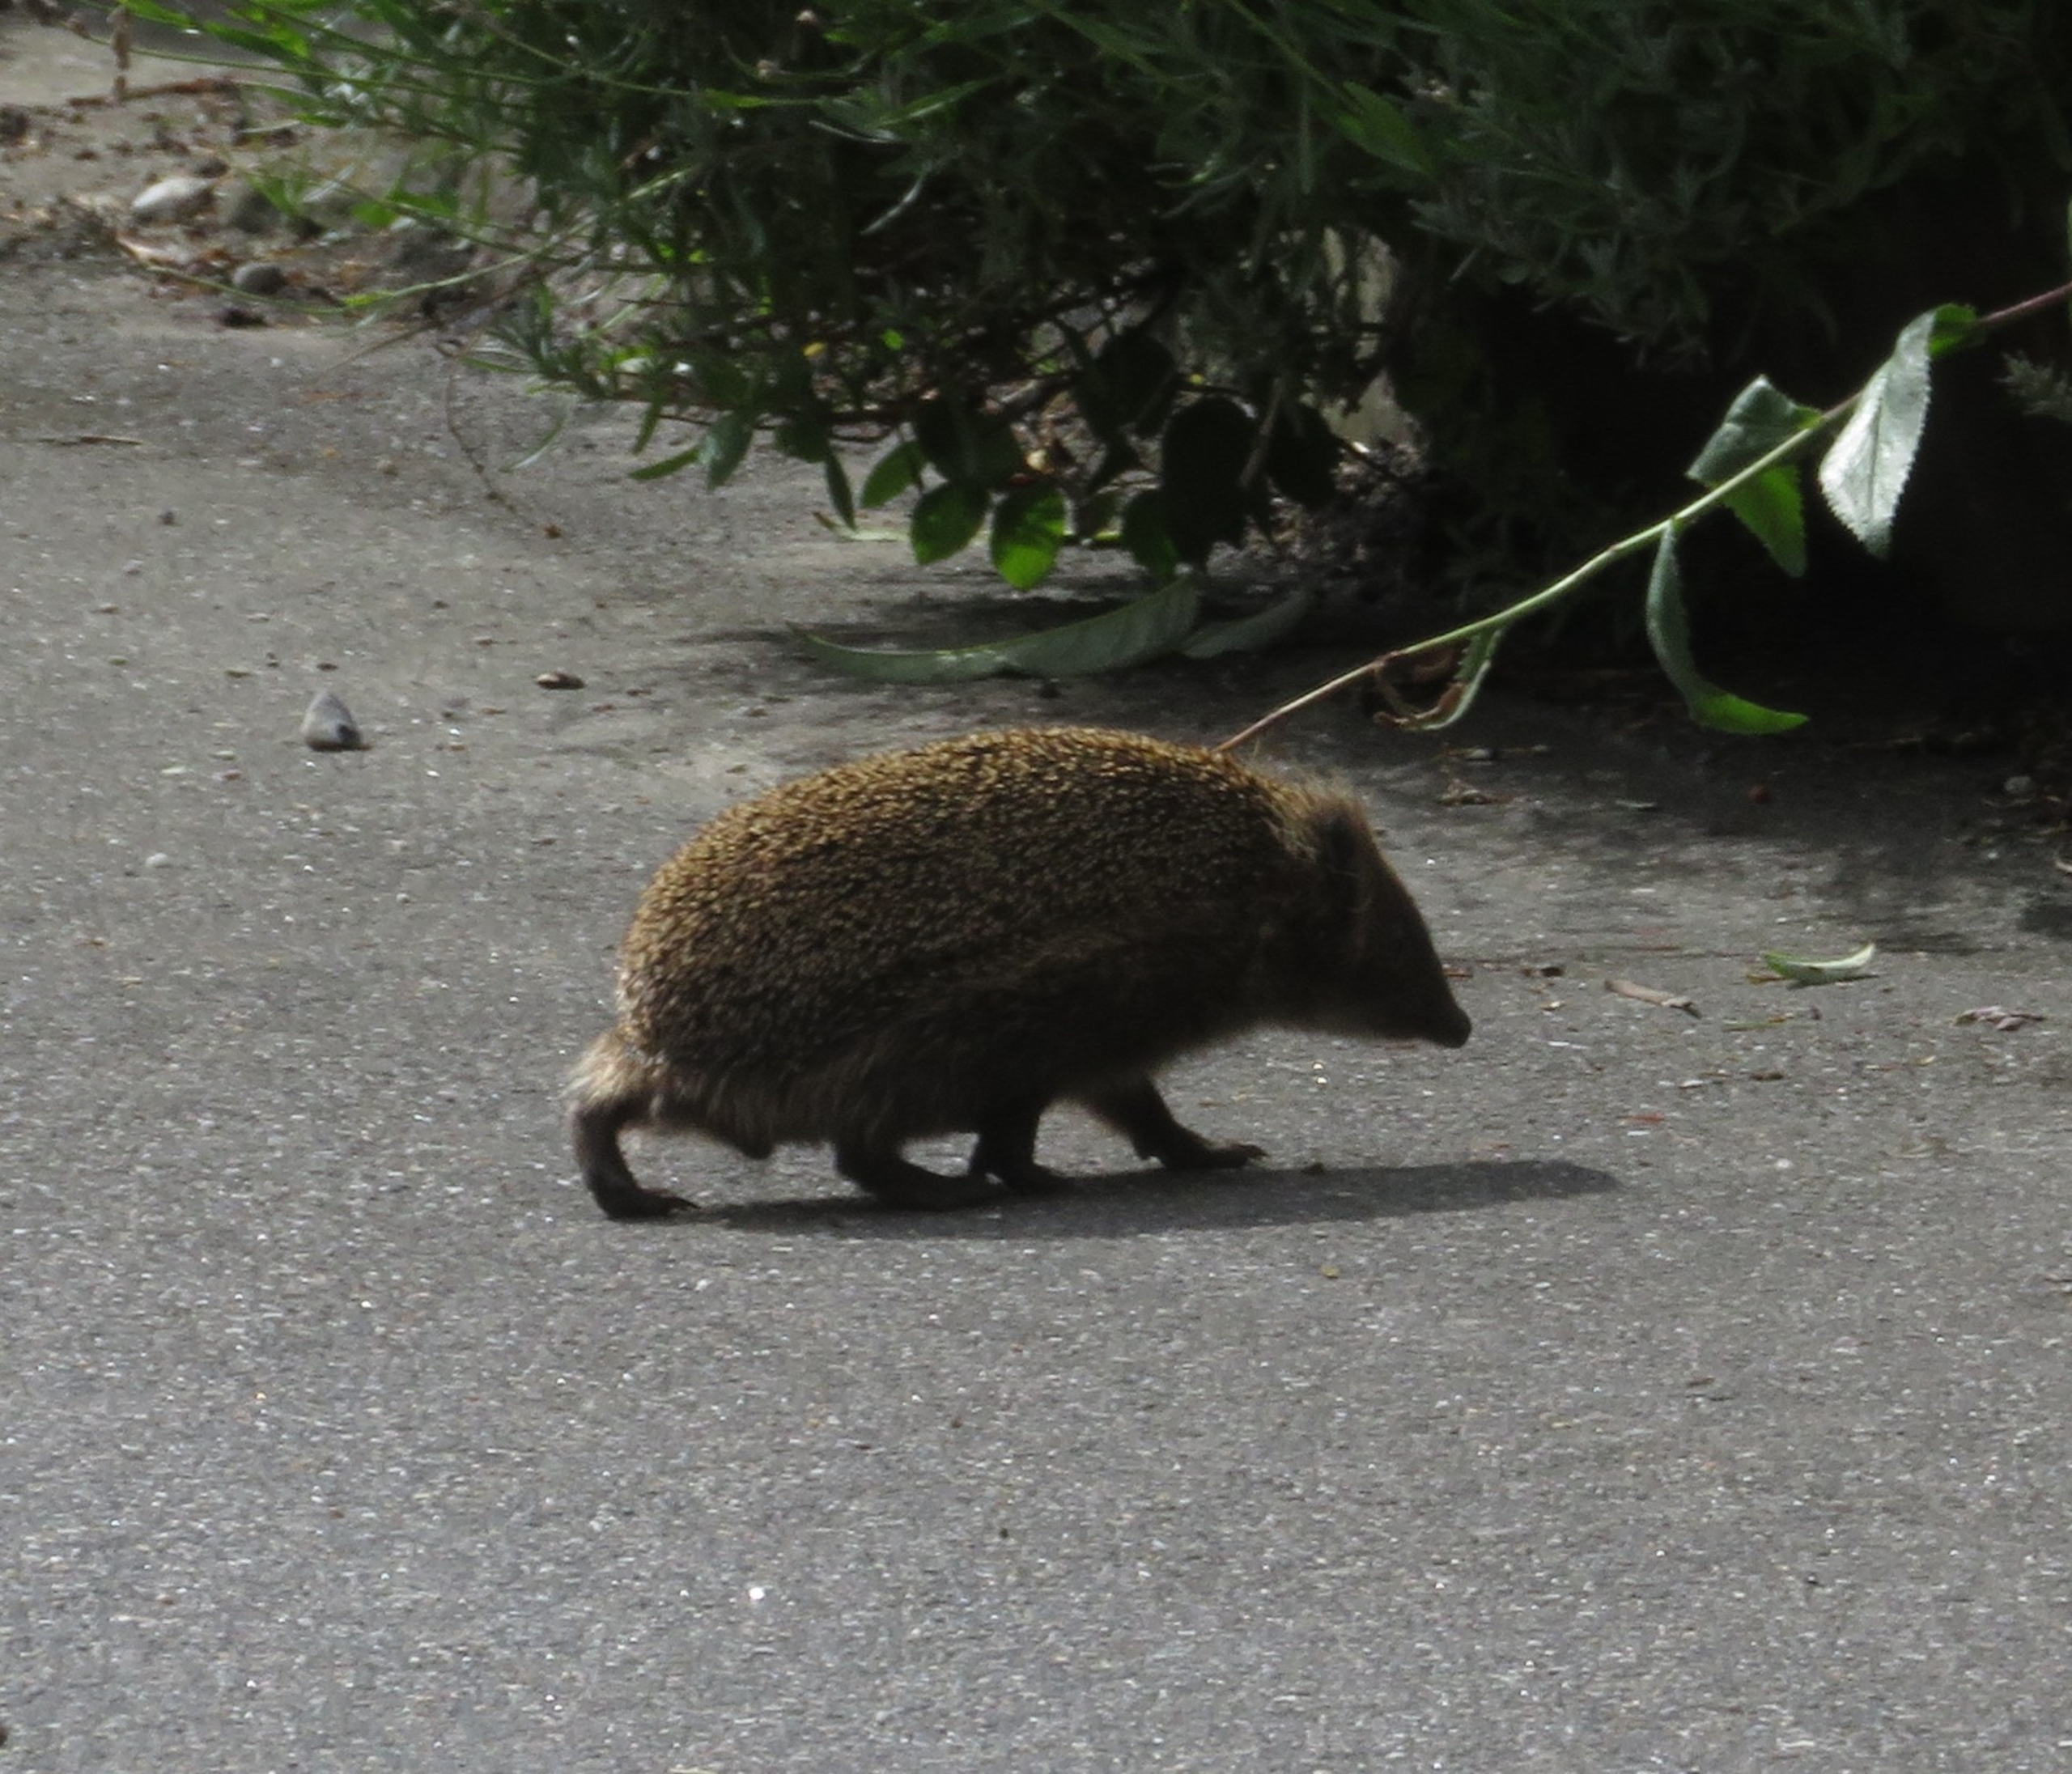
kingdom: Animalia
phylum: Chordata
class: Mammalia
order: Erinaceomorpha
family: Erinaceidae
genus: Erinaceus
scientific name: Erinaceus europaeus
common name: Pindsvin
